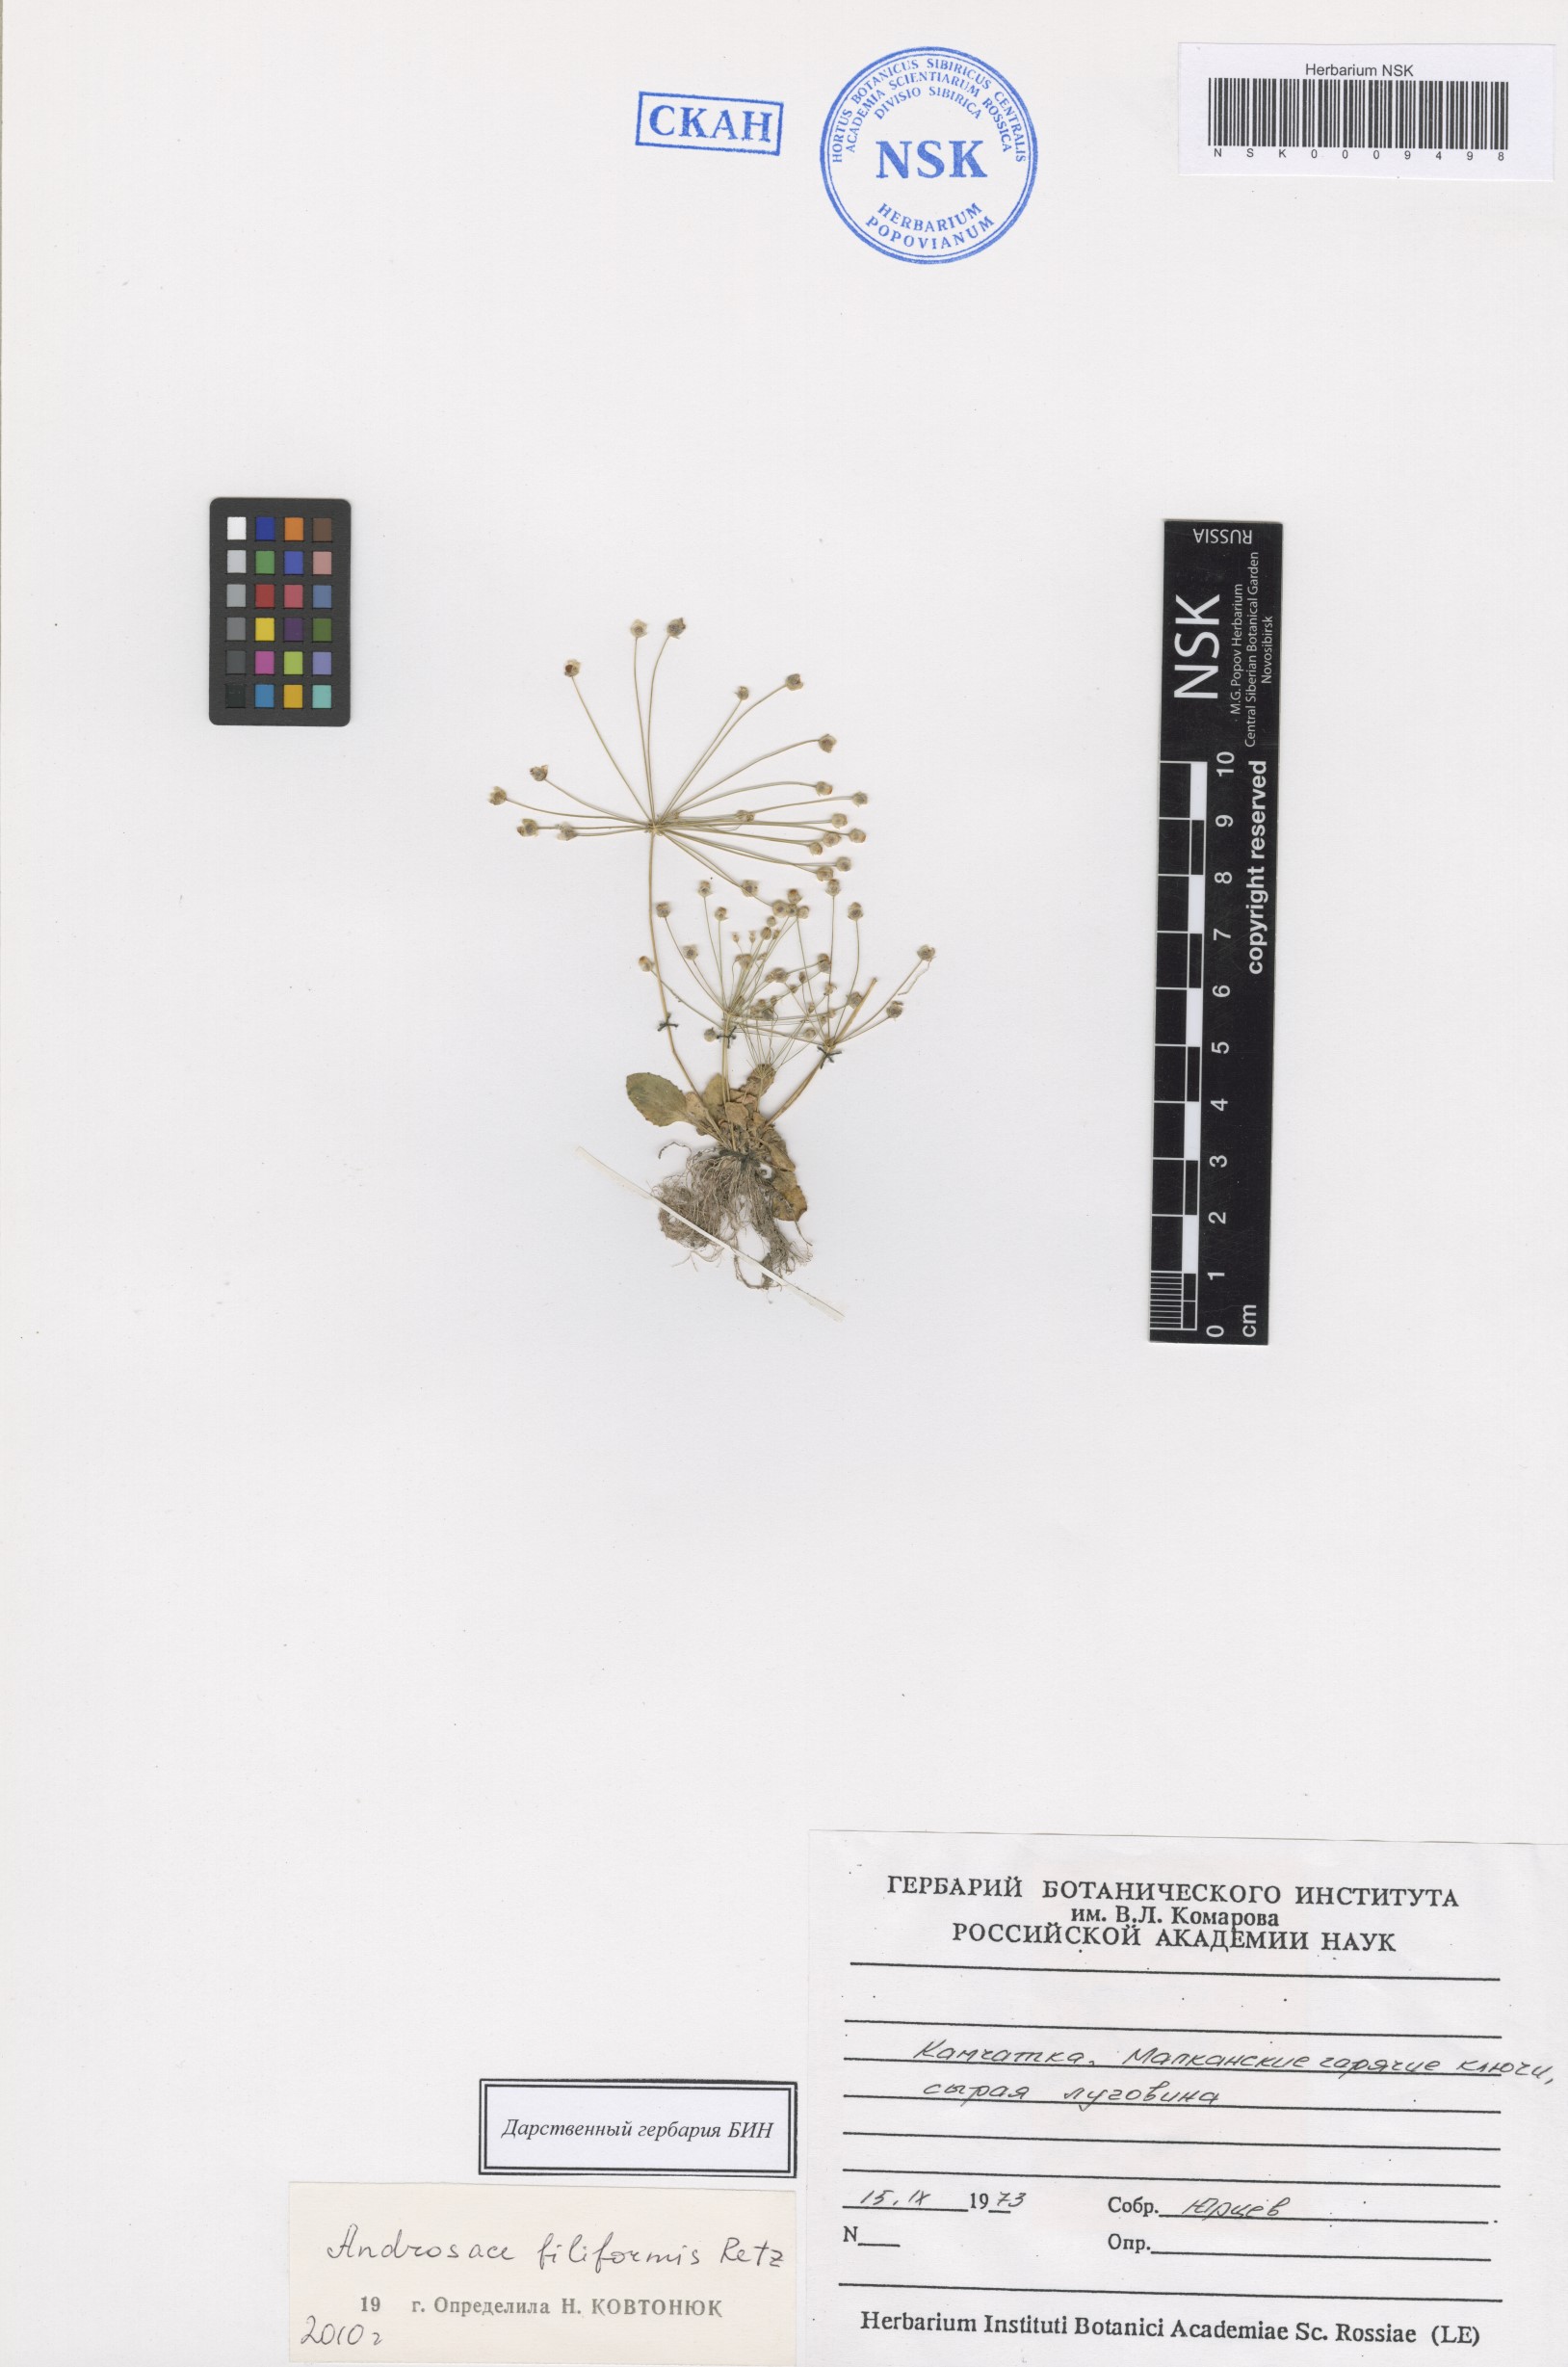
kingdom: Plantae
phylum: Tracheophyta
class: Magnoliopsida
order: Ericales
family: Primulaceae
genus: Androsace
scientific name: Androsace filiformis
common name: Filiform rock jasmine
